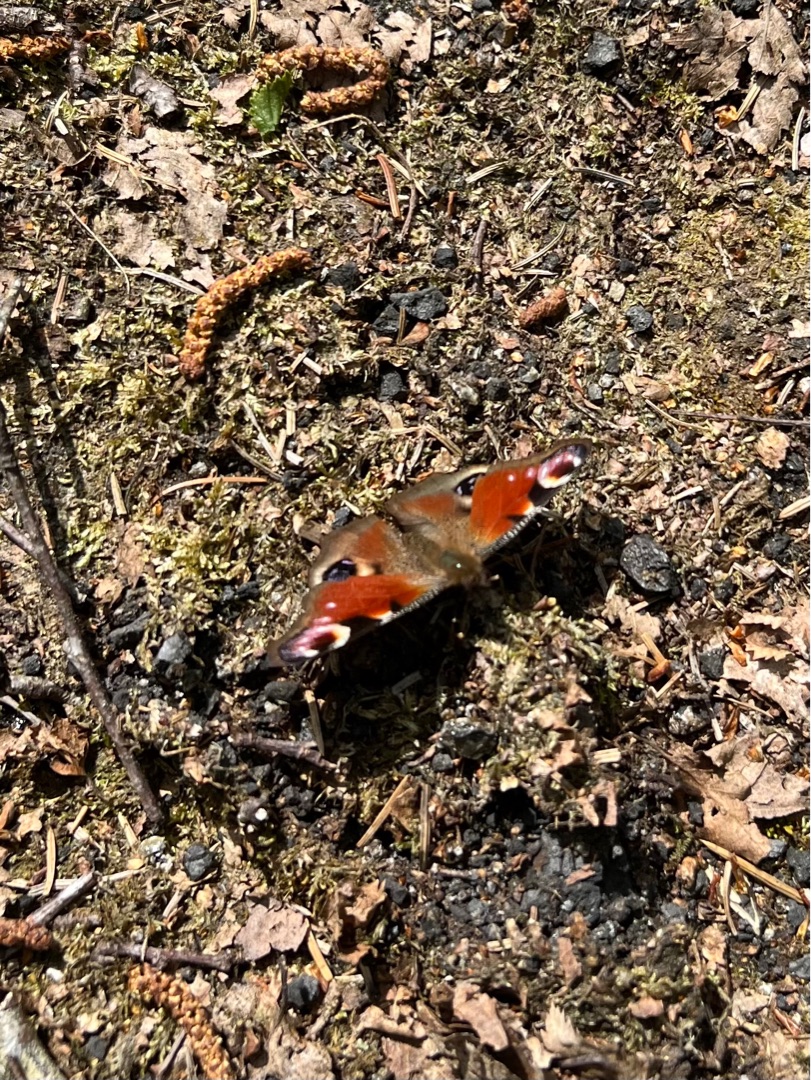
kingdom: Animalia
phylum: Arthropoda
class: Insecta
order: Lepidoptera
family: Nymphalidae
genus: Aglais
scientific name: Aglais io
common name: Dagpåfugleøje
